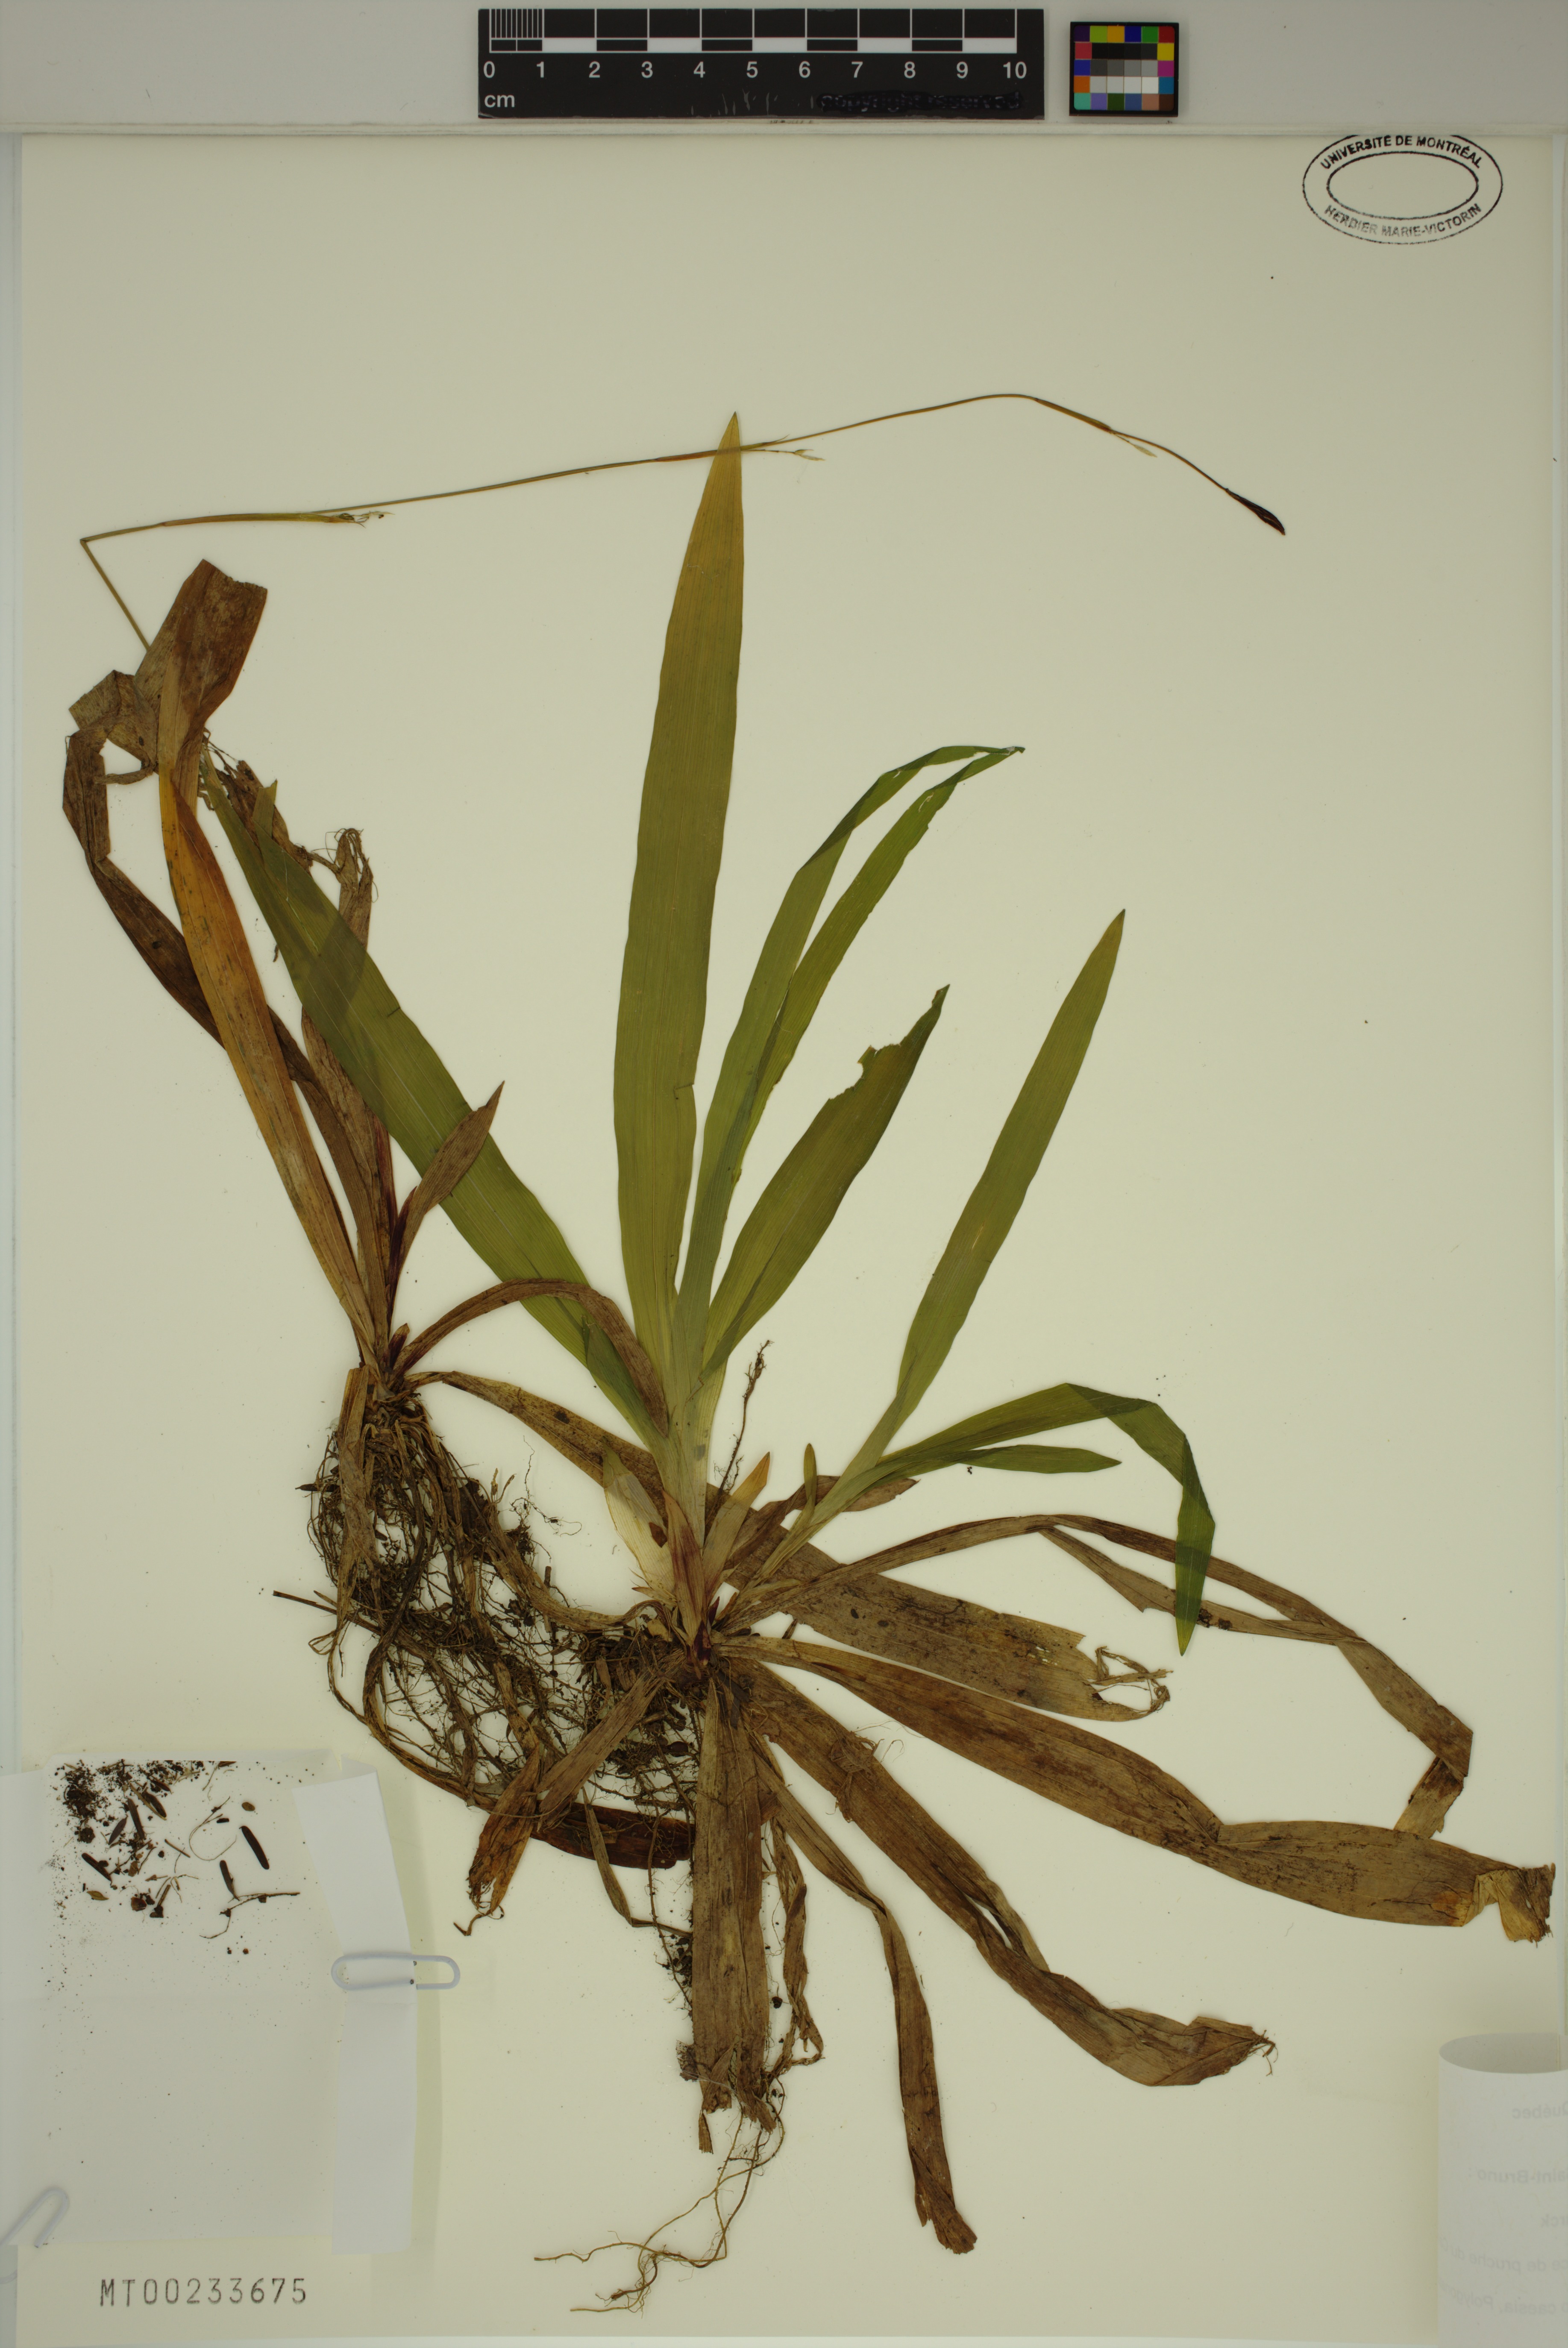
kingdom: Plantae
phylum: Tracheophyta
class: Liliopsida
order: Poales
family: Cyperaceae
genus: Carex
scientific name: Carex plantaginea
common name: Plantain-leaved sedge
